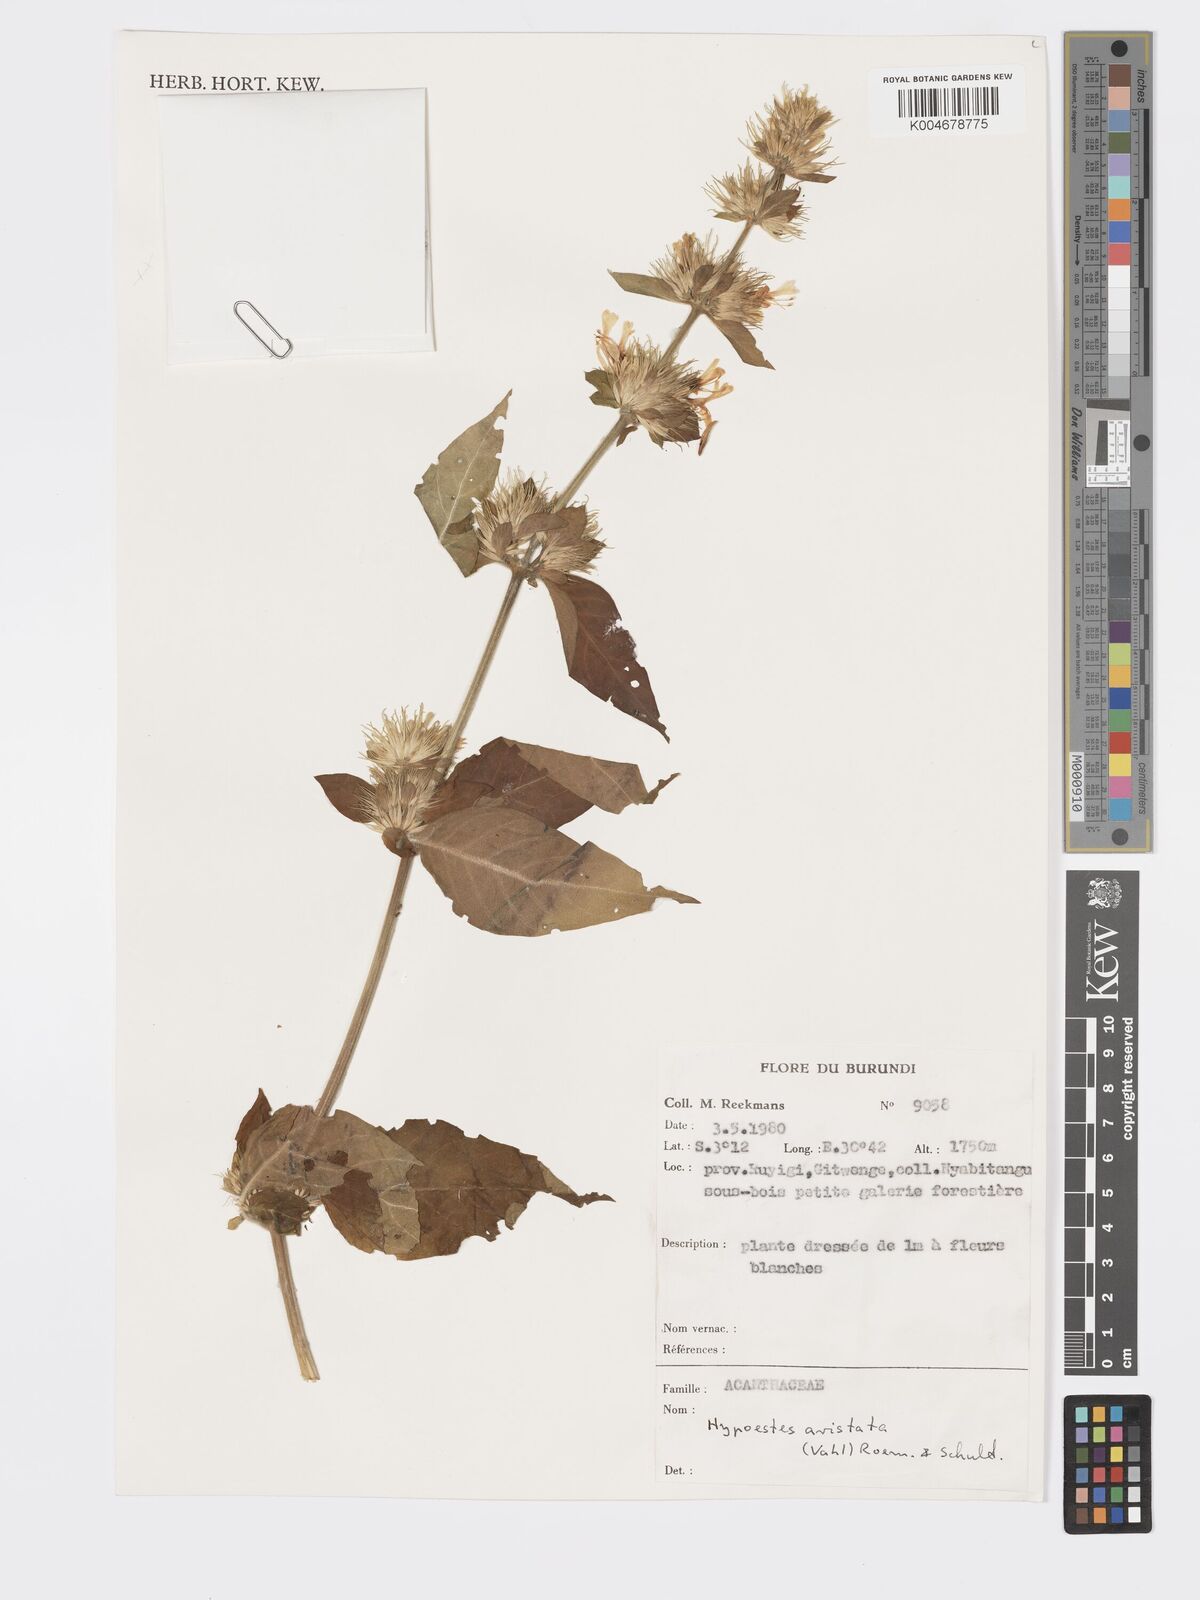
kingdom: Plantae
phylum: Tracheophyta
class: Magnoliopsida
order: Lamiales
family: Acanthaceae
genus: Hypoestes
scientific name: Hypoestes aristata
